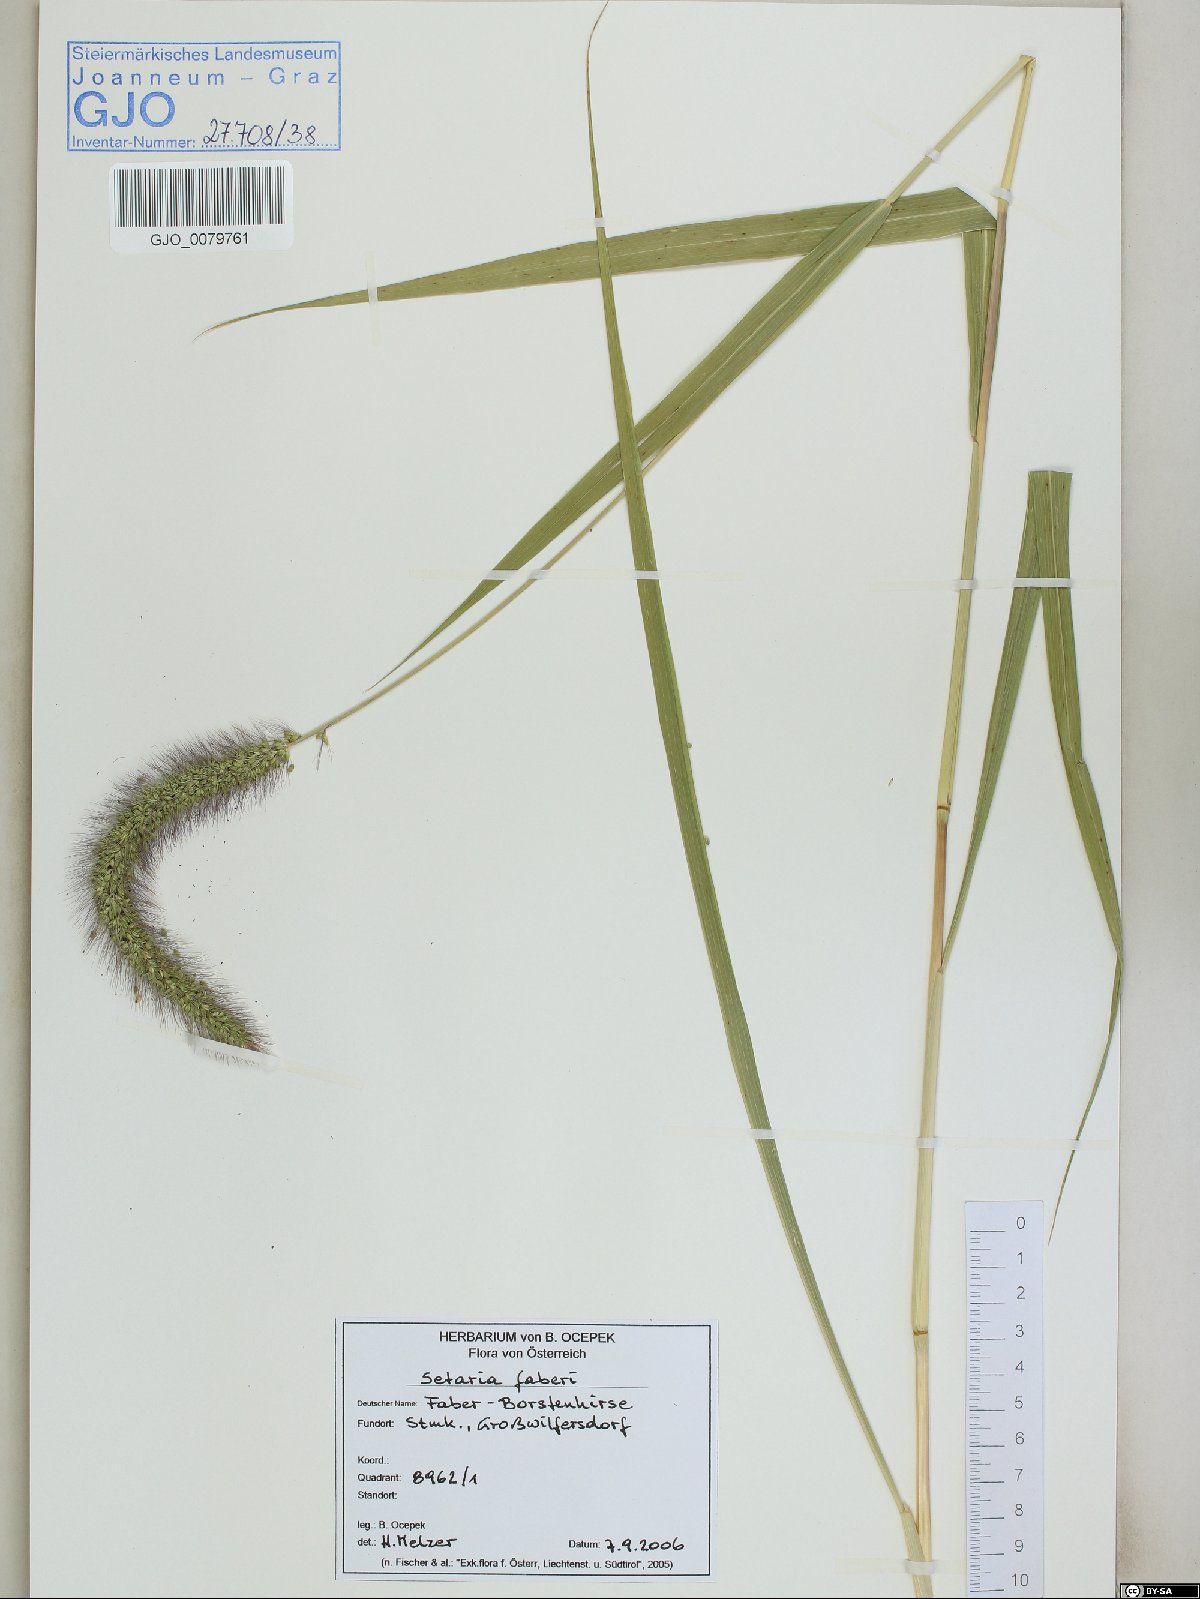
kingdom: Plantae
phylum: Tracheophyta
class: Liliopsida
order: Poales
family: Poaceae
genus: Setaria
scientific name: Setaria faberi
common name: Nodding bristle-grass
